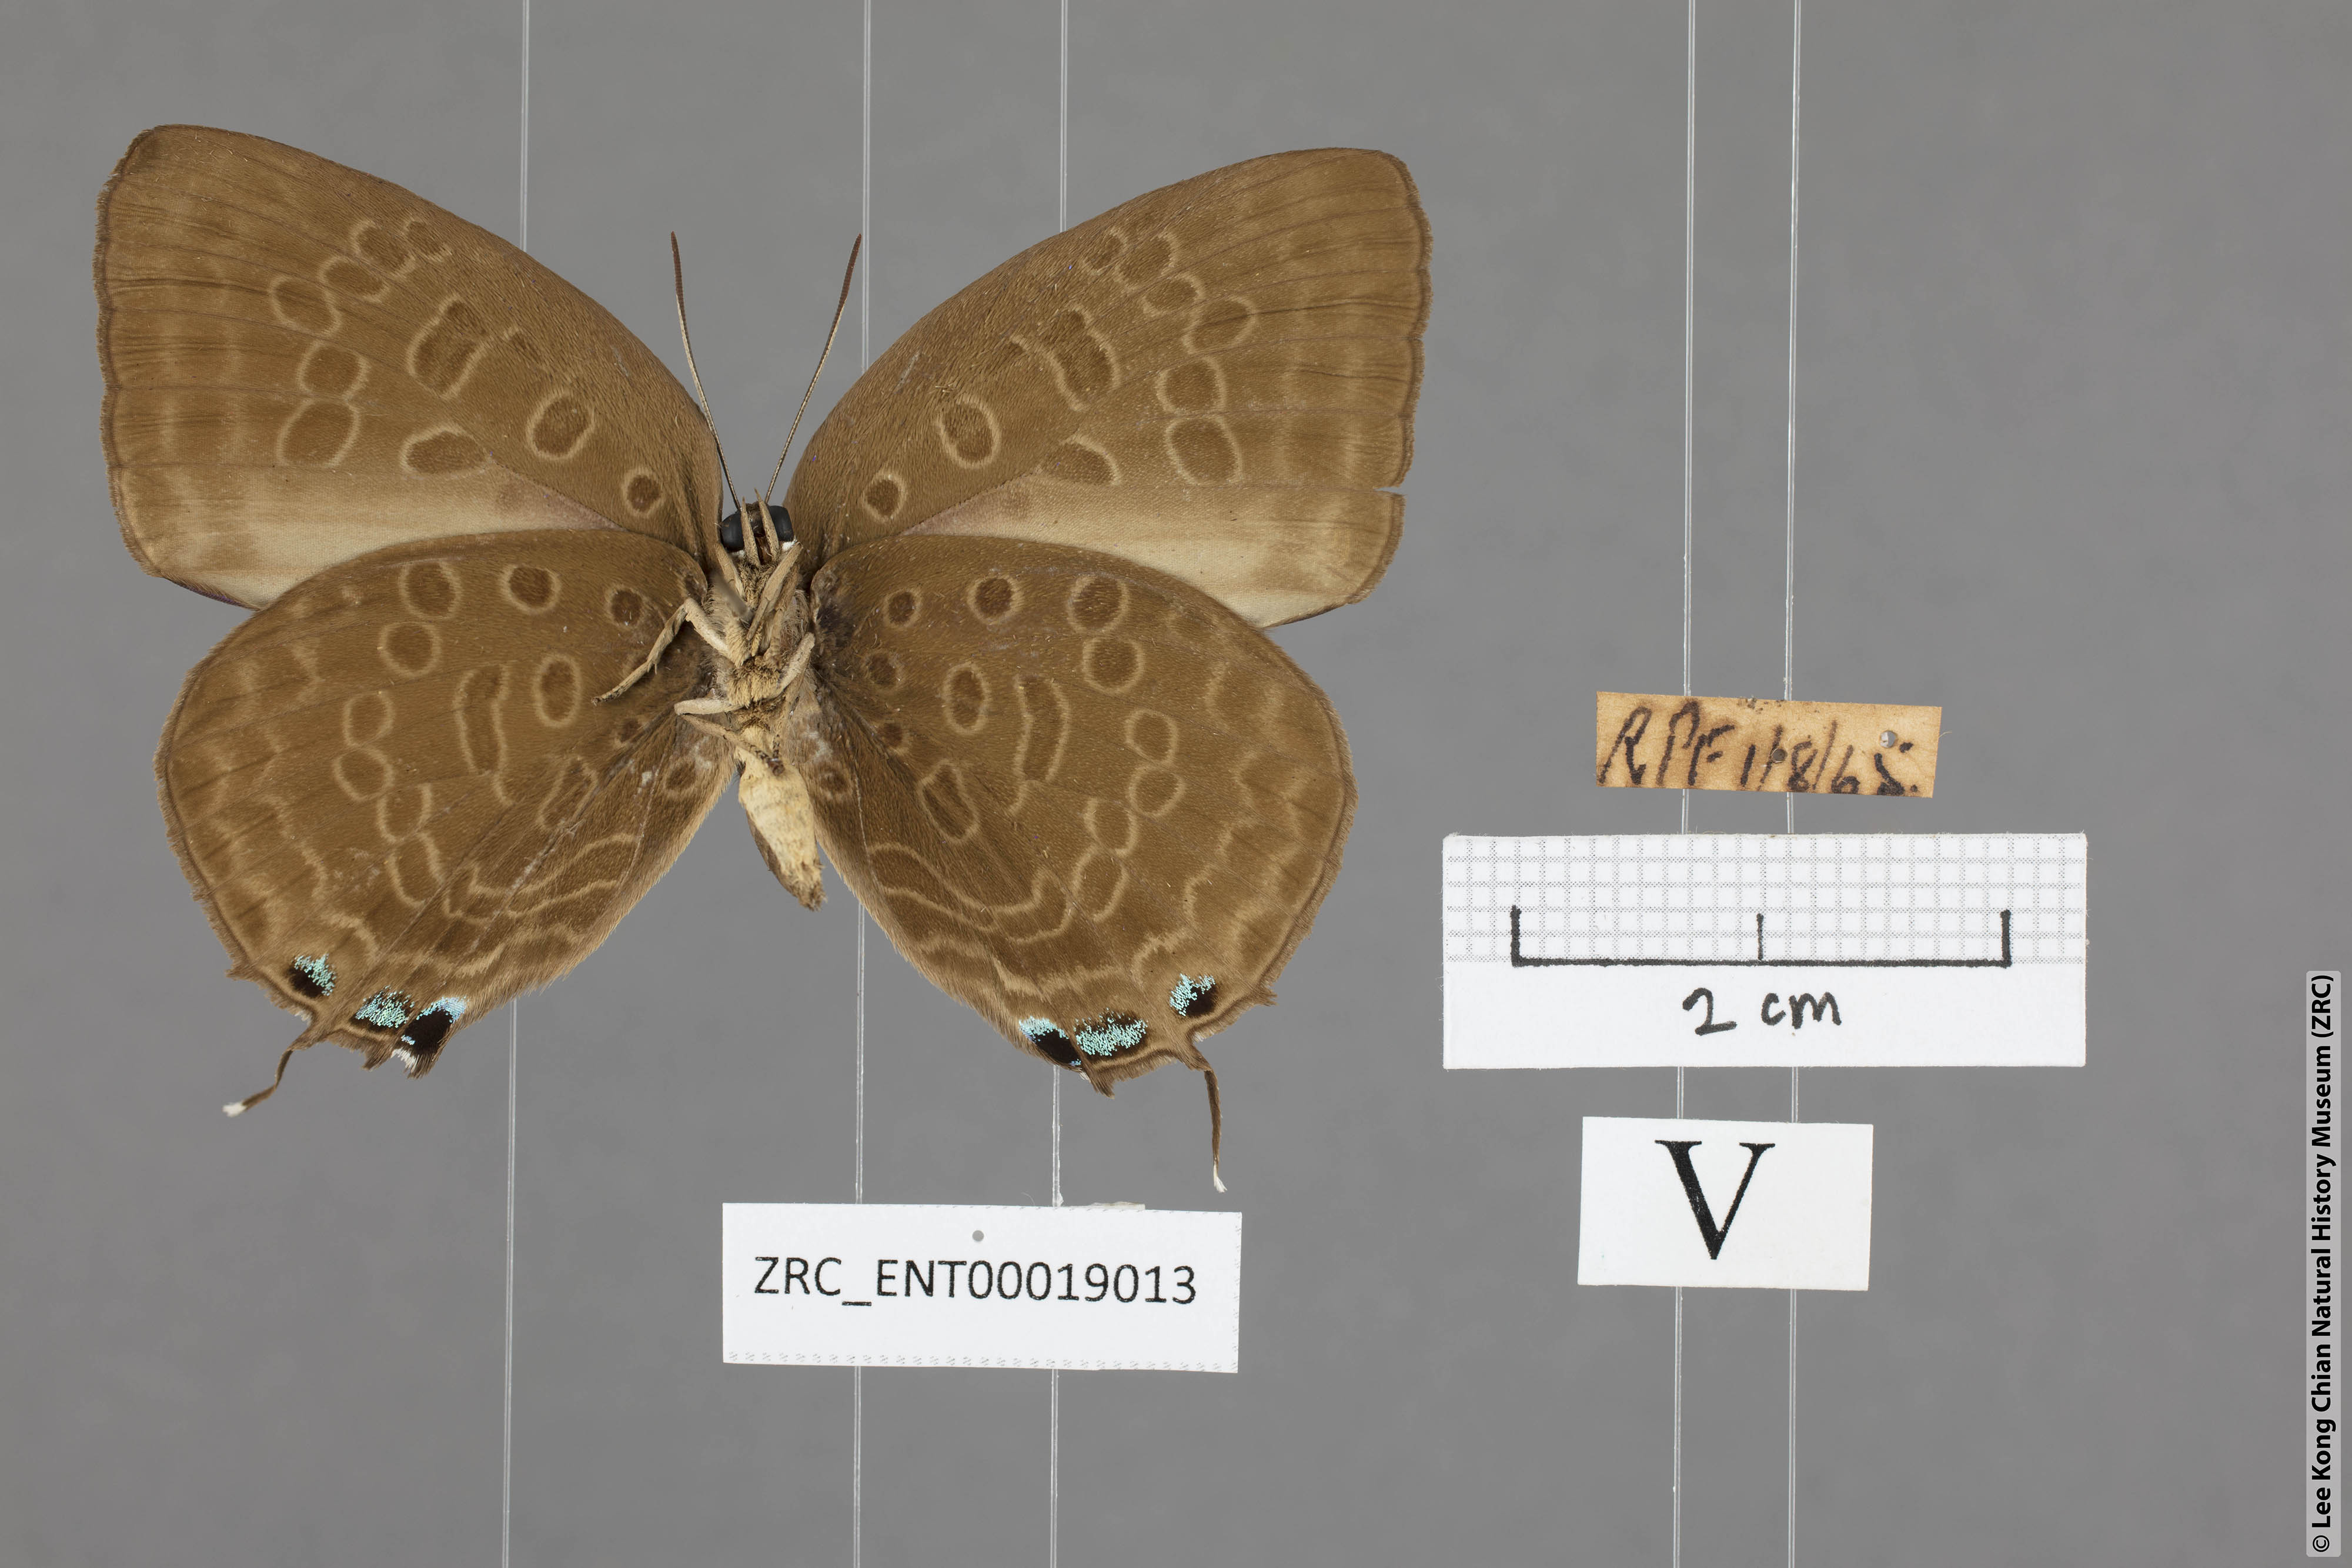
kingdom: Animalia
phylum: Arthropoda
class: Insecta
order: Lepidoptera
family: Lycaenidae
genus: Arhopala
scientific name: Arhopala aedias
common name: Large metallic oakblue
